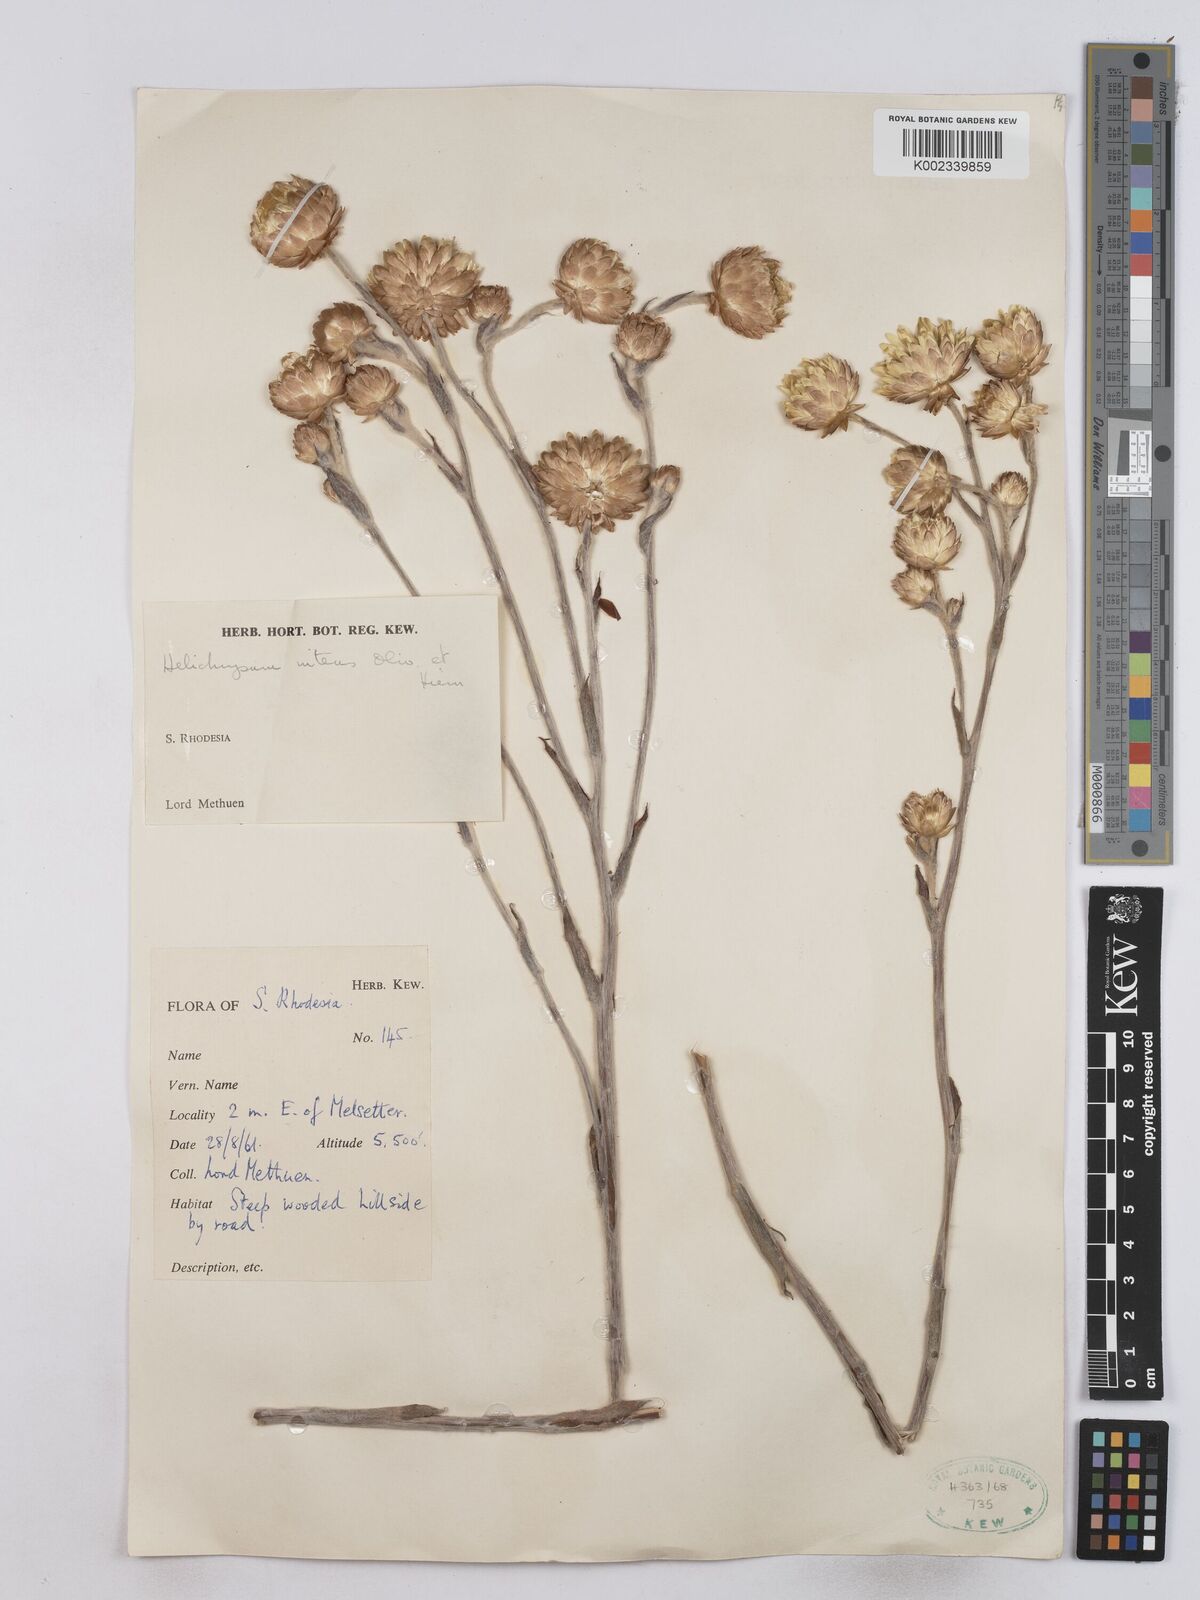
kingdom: Plantae
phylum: Tracheophyta
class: Magnoliopsida
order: Asterales
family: Asteraceae
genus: Helichrysum
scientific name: Helichrysum nitens
